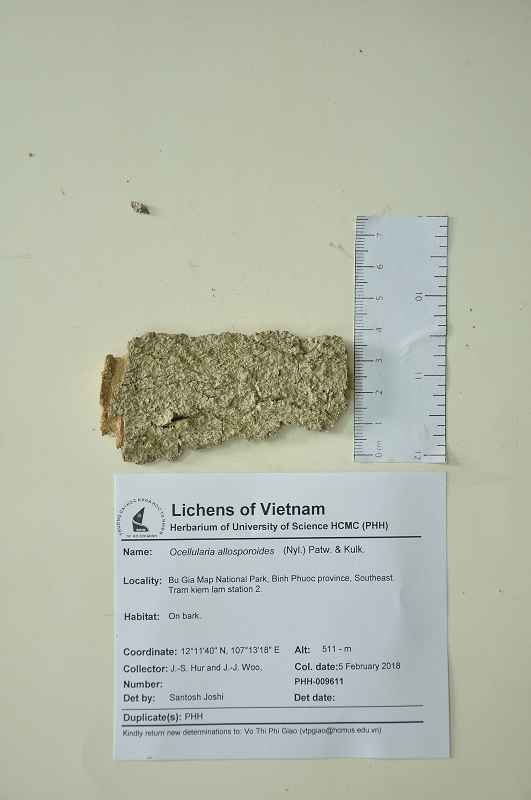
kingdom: Fungi
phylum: Ascomycota
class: Lecanoromycetes
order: Ostropales
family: Graphidaceae
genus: Thelotrema
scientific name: Thelotrema allosporoides
